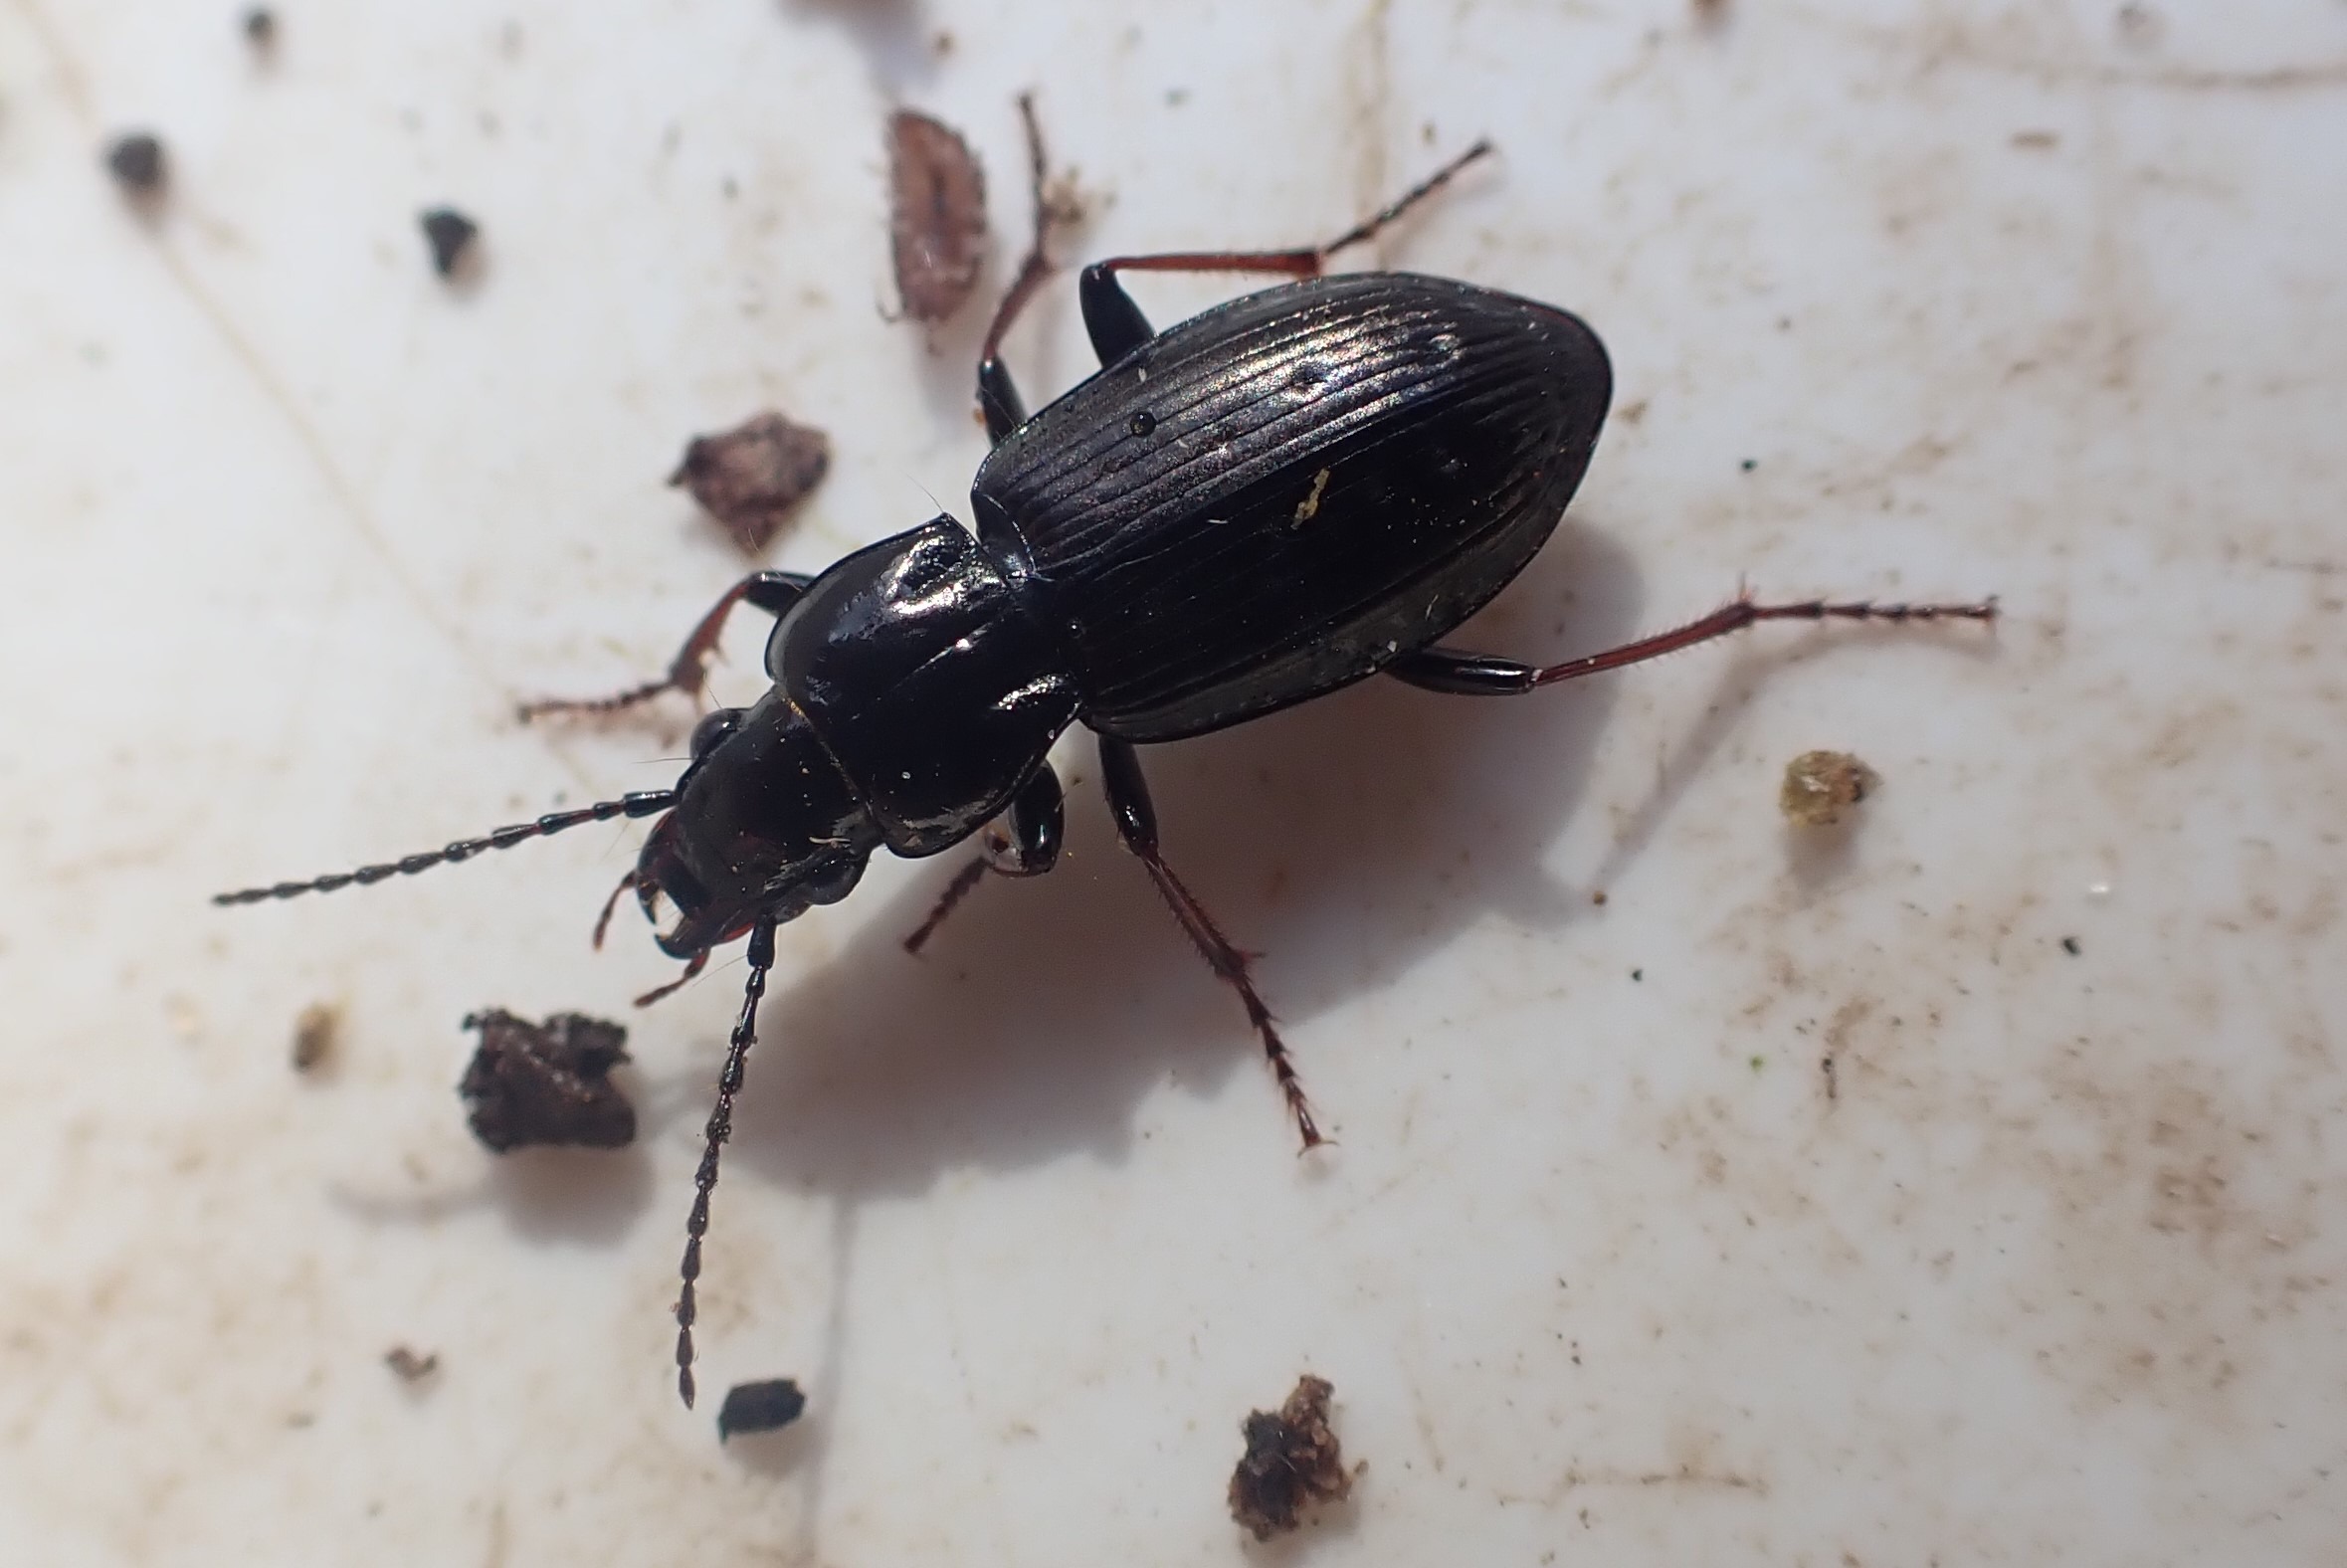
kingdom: Animalia
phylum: Arthropoda
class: Insecta
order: Coleoptera
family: Carabidae
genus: Pterostichus
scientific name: Pterostichus oblongopunctatus
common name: Bronzejordløber
